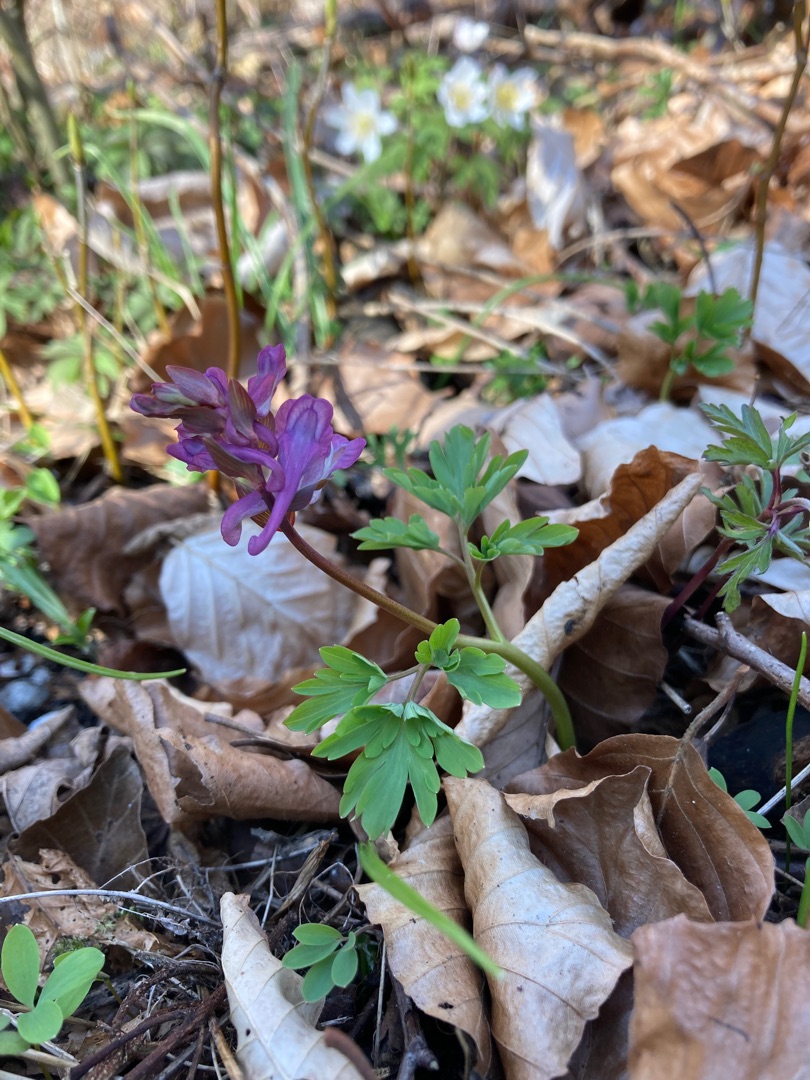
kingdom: Plantae
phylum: Tracheophyta
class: Magnoliopsida
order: Ranunculales
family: Papaveraceae
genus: Corydalis
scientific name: Corydalis cava
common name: Hulrodet lærkespore
